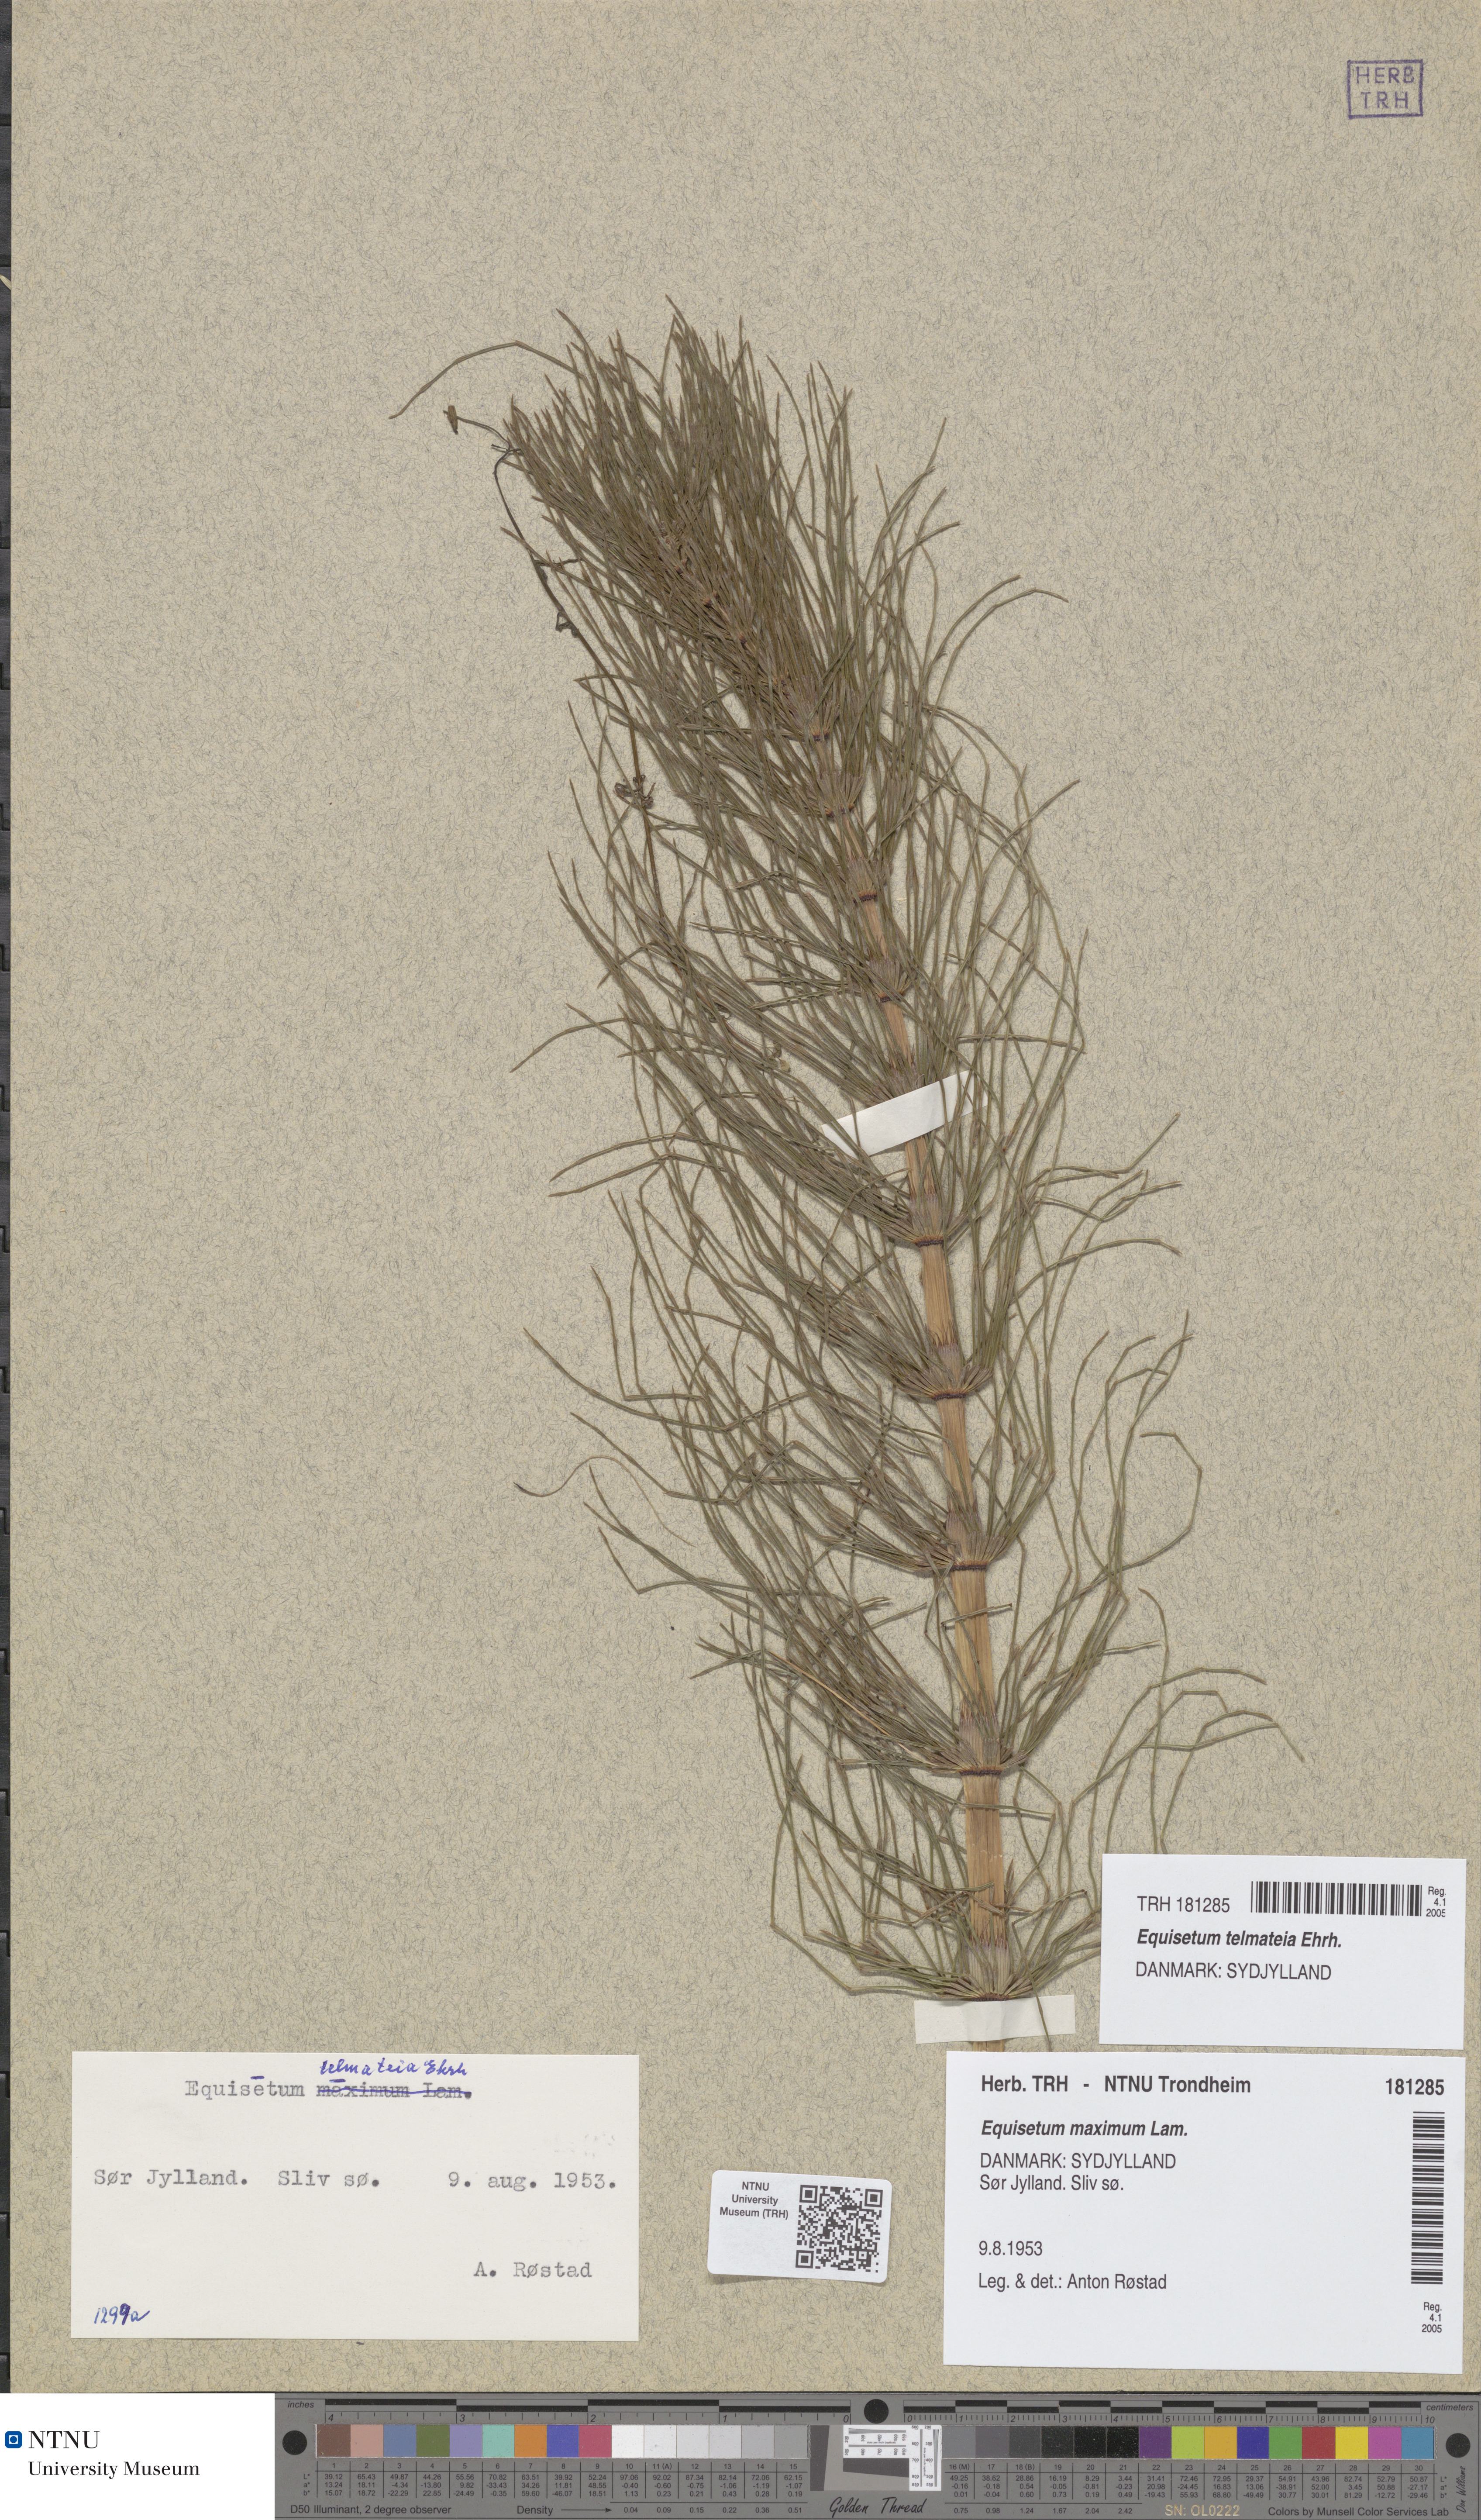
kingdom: Plantae
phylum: Tracheophyta
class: Polypodiopsida
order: Equisetales
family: Equisetaceae
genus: Equisetum
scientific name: Equisetum telmateia
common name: Great horsetail
